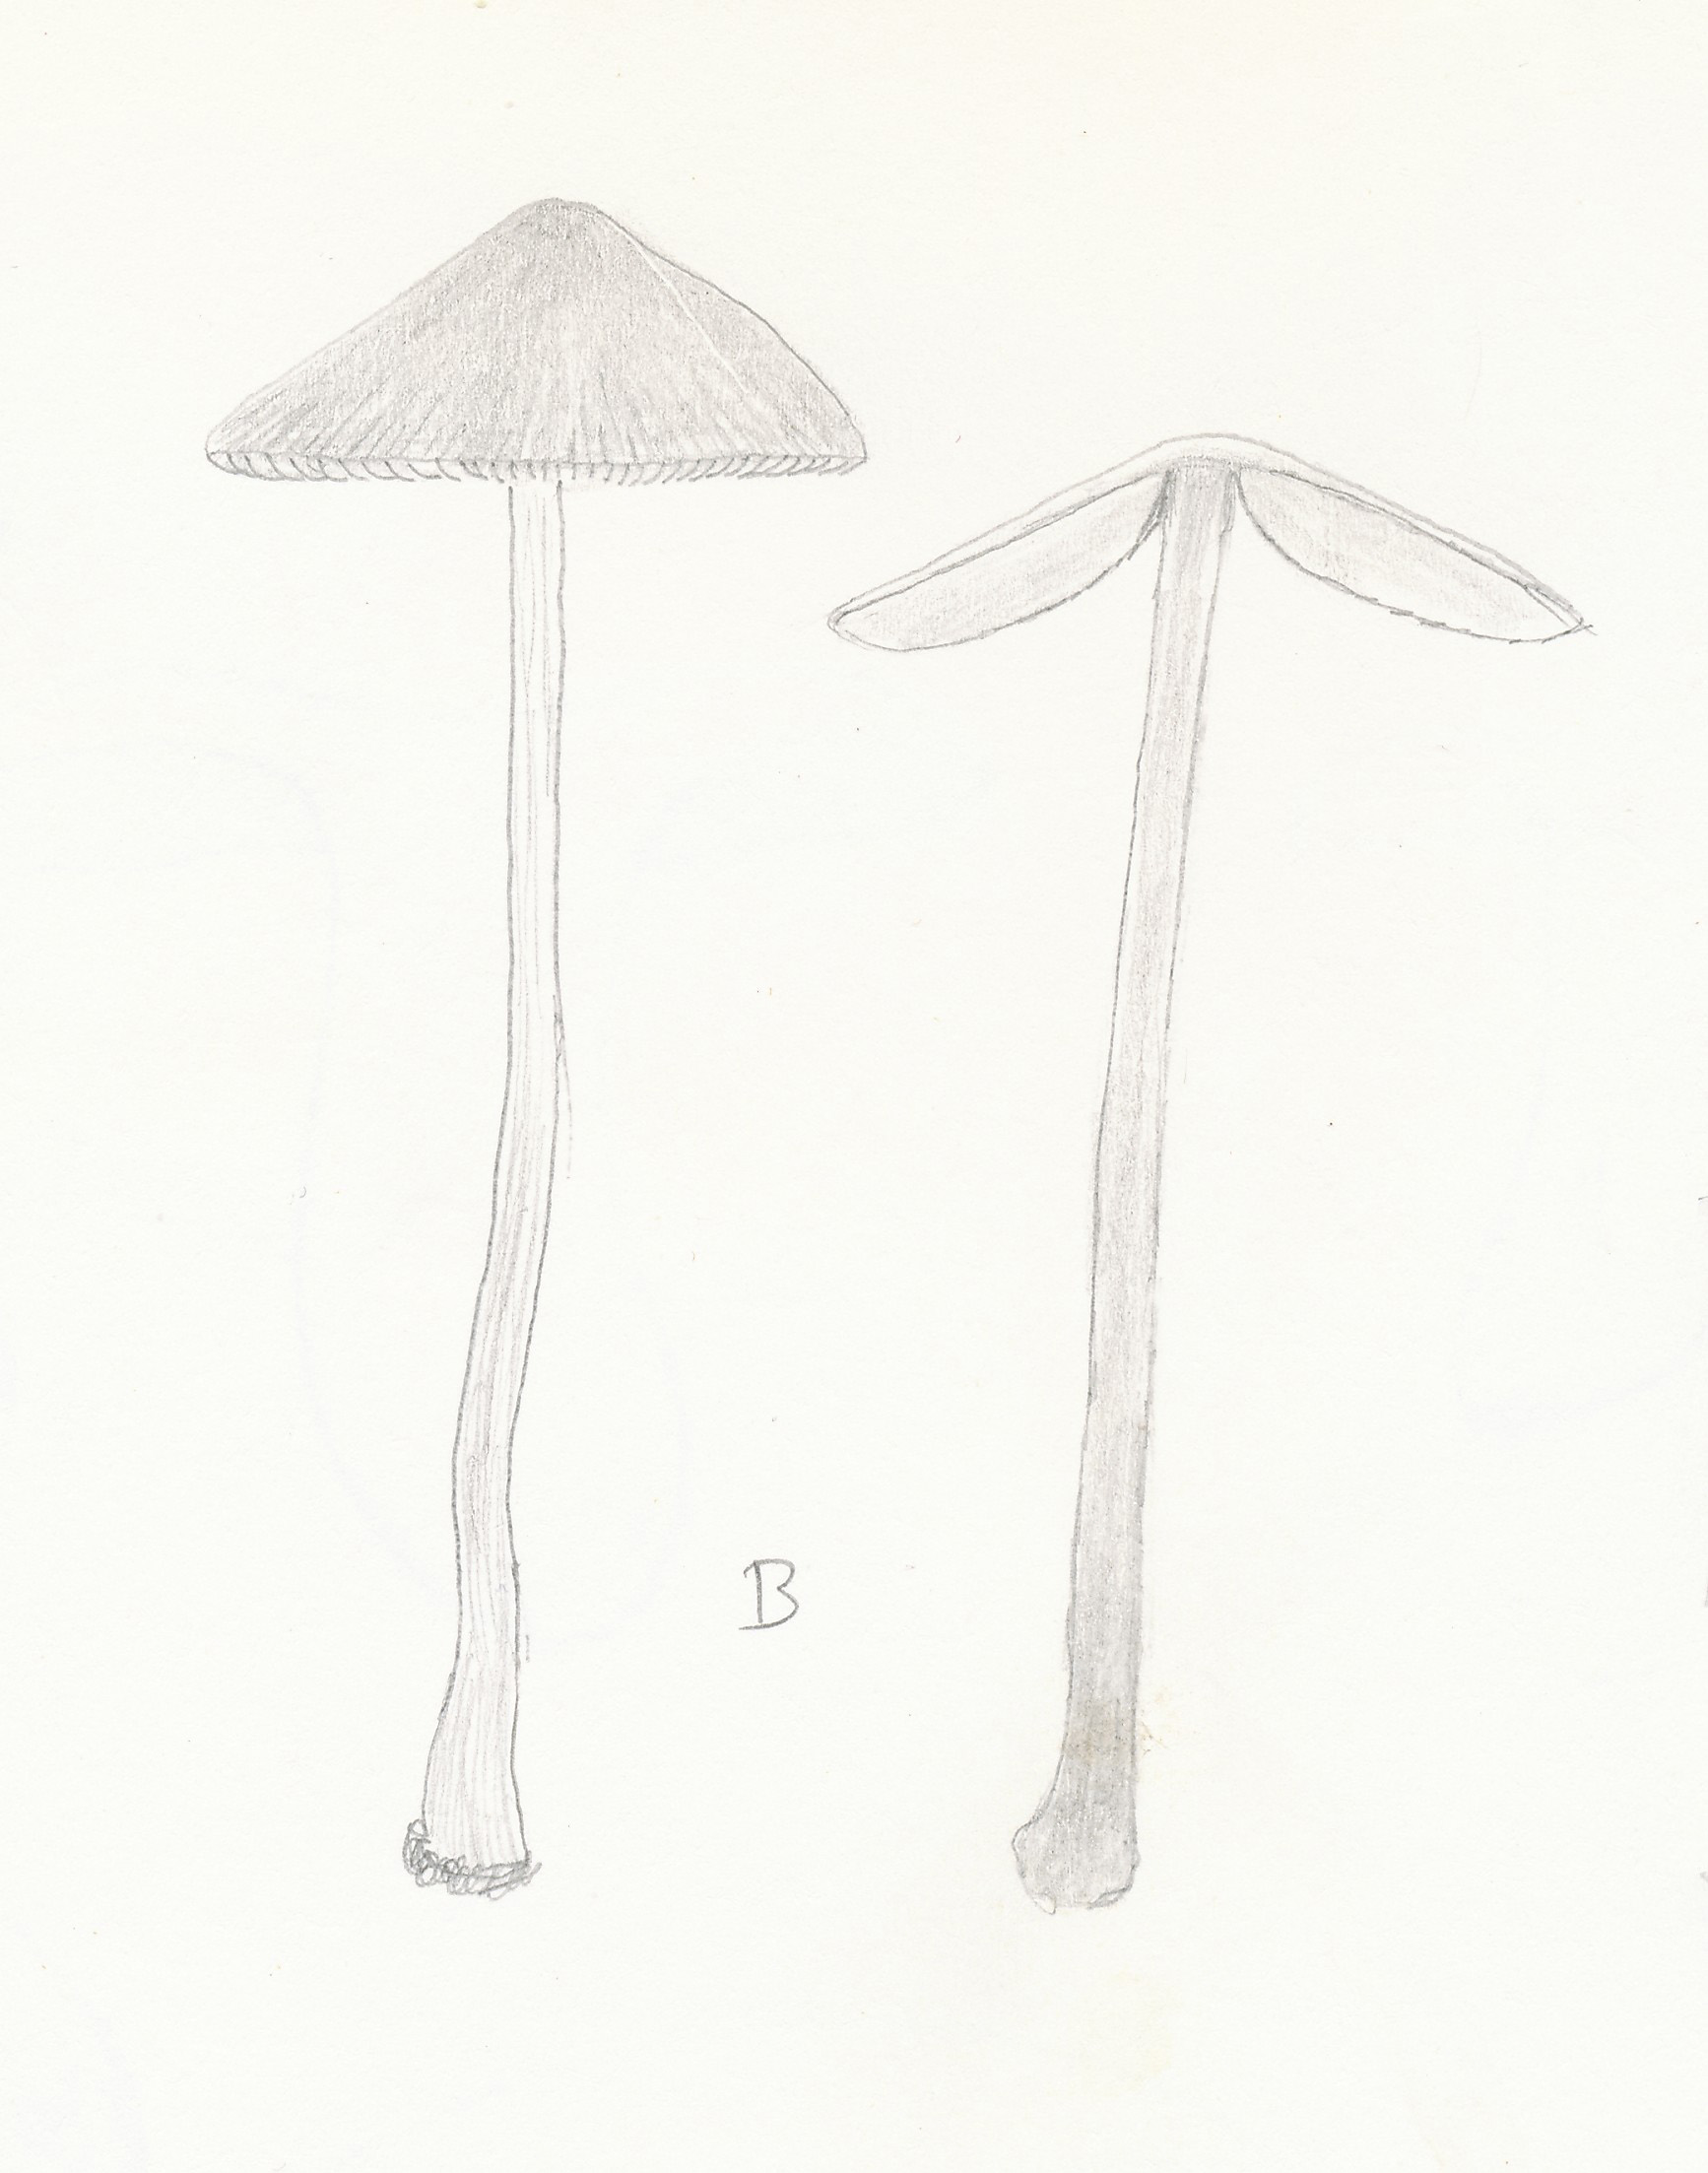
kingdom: Fungi
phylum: Basidiomycota
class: Agaricomycetes
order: Agaricales
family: Bolbitiaceae
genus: Conocybe
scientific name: Conocybe juniana
